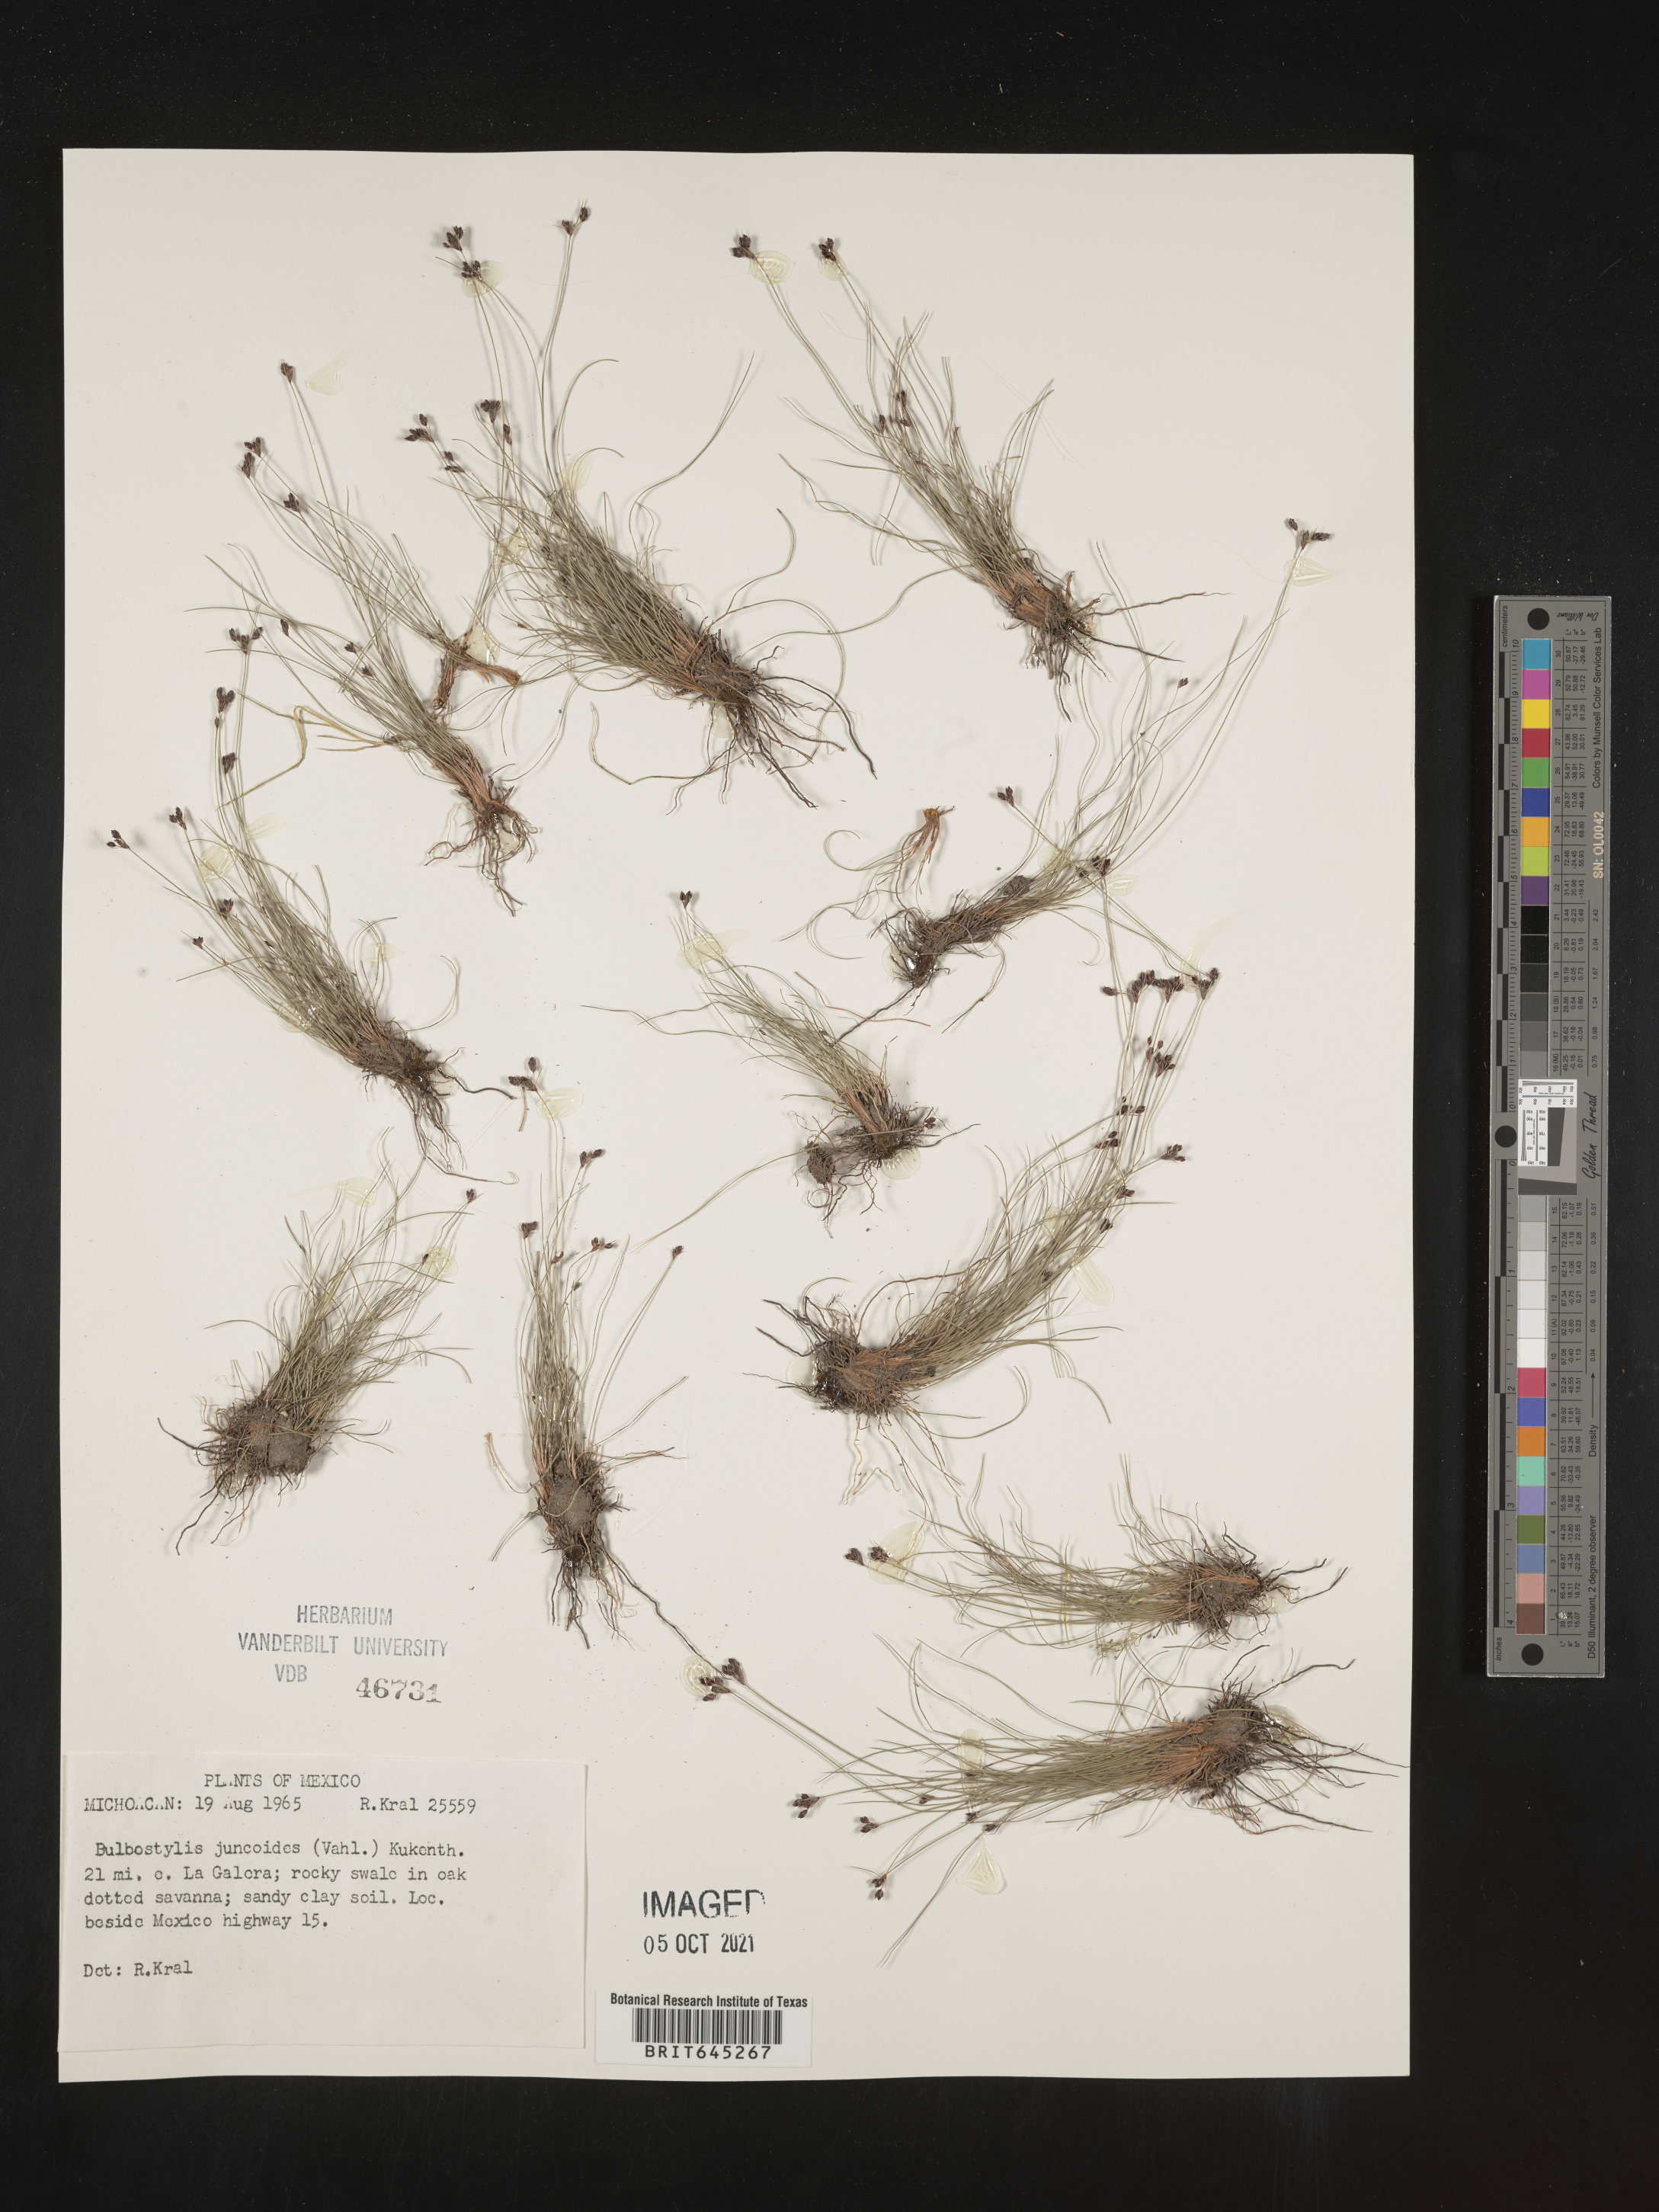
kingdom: Plantae
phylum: Tracheophyta
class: Liliopsida
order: Poales
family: Cyperaceae
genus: Bulbostylis
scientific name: Bulbostylis juncoides
